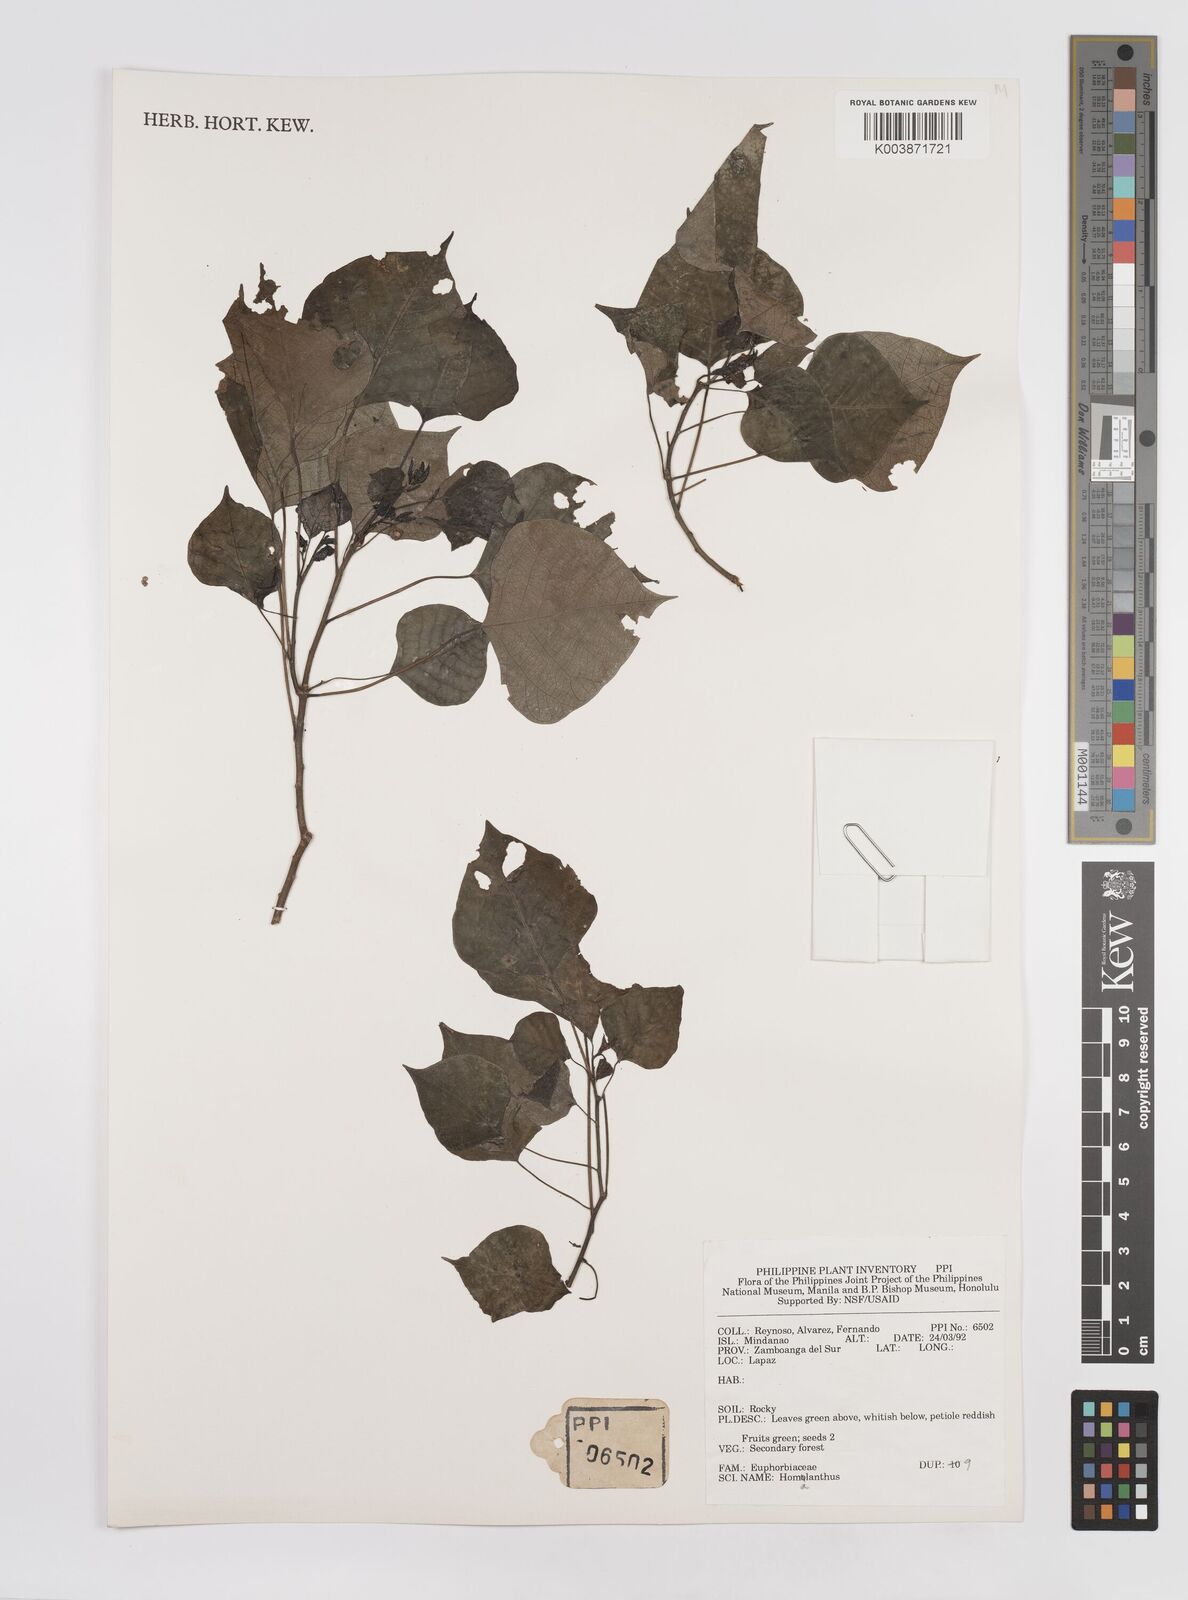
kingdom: Plantae
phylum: Tracheophyta
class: Magnoliopsida
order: Malpighiales
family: Euphorbiaceae
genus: Homalanthus
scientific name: Homalanthus populneus
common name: Spurge
